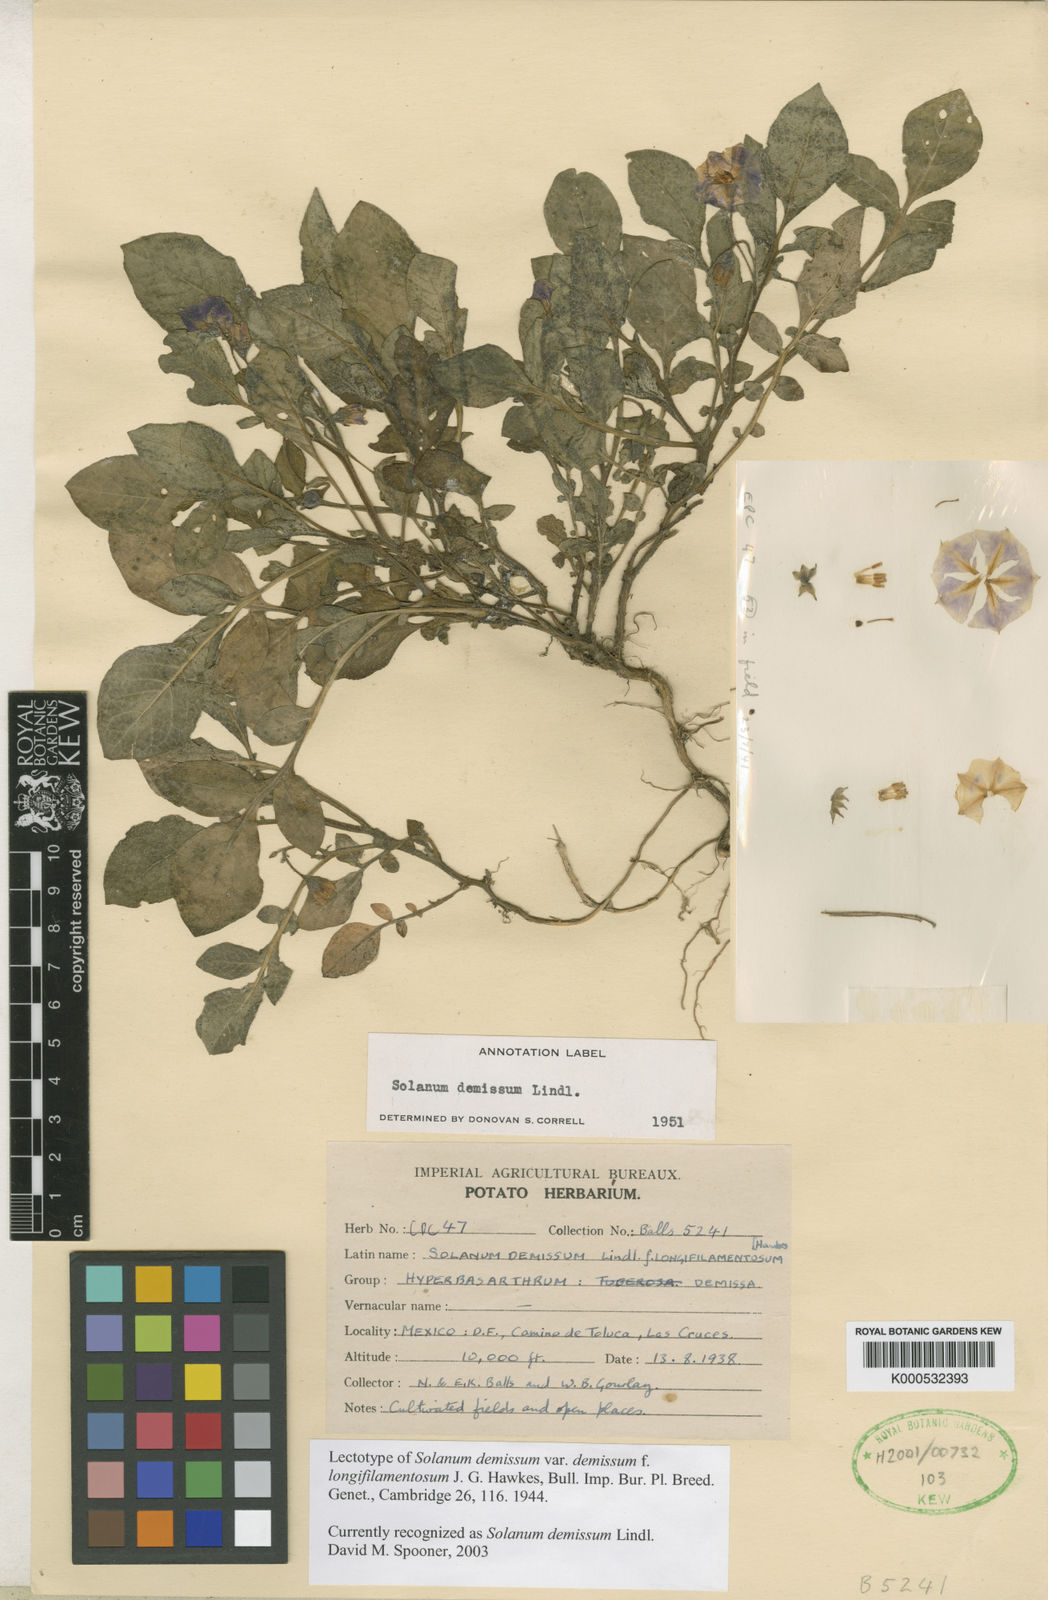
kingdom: Plantae
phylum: Tracheophyta
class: Magnoliopsida
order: Solanales
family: Solanaceae
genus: Solanum
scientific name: Solanum demissum
